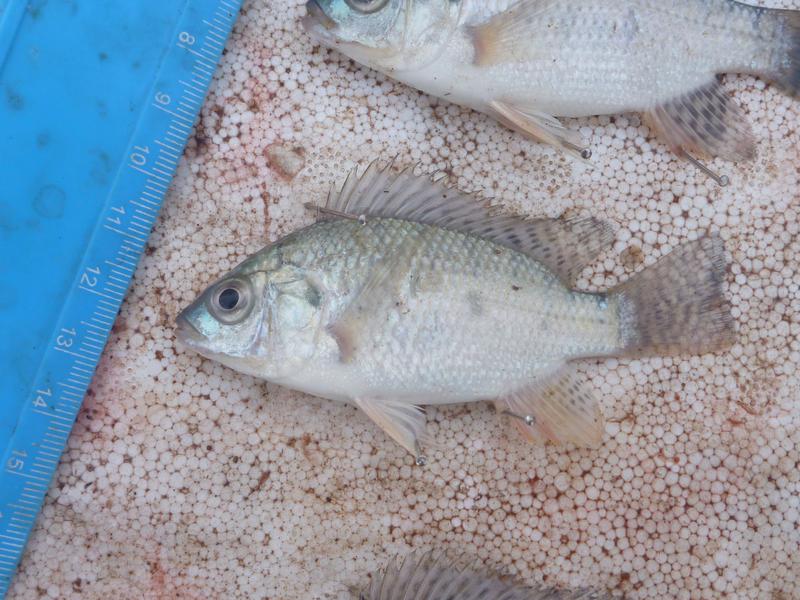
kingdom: Animalia
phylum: Chordata
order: Perciformes
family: Cichlidae
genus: Oreochromis
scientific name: Oreochromis niloticus
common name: Nile tilapia
